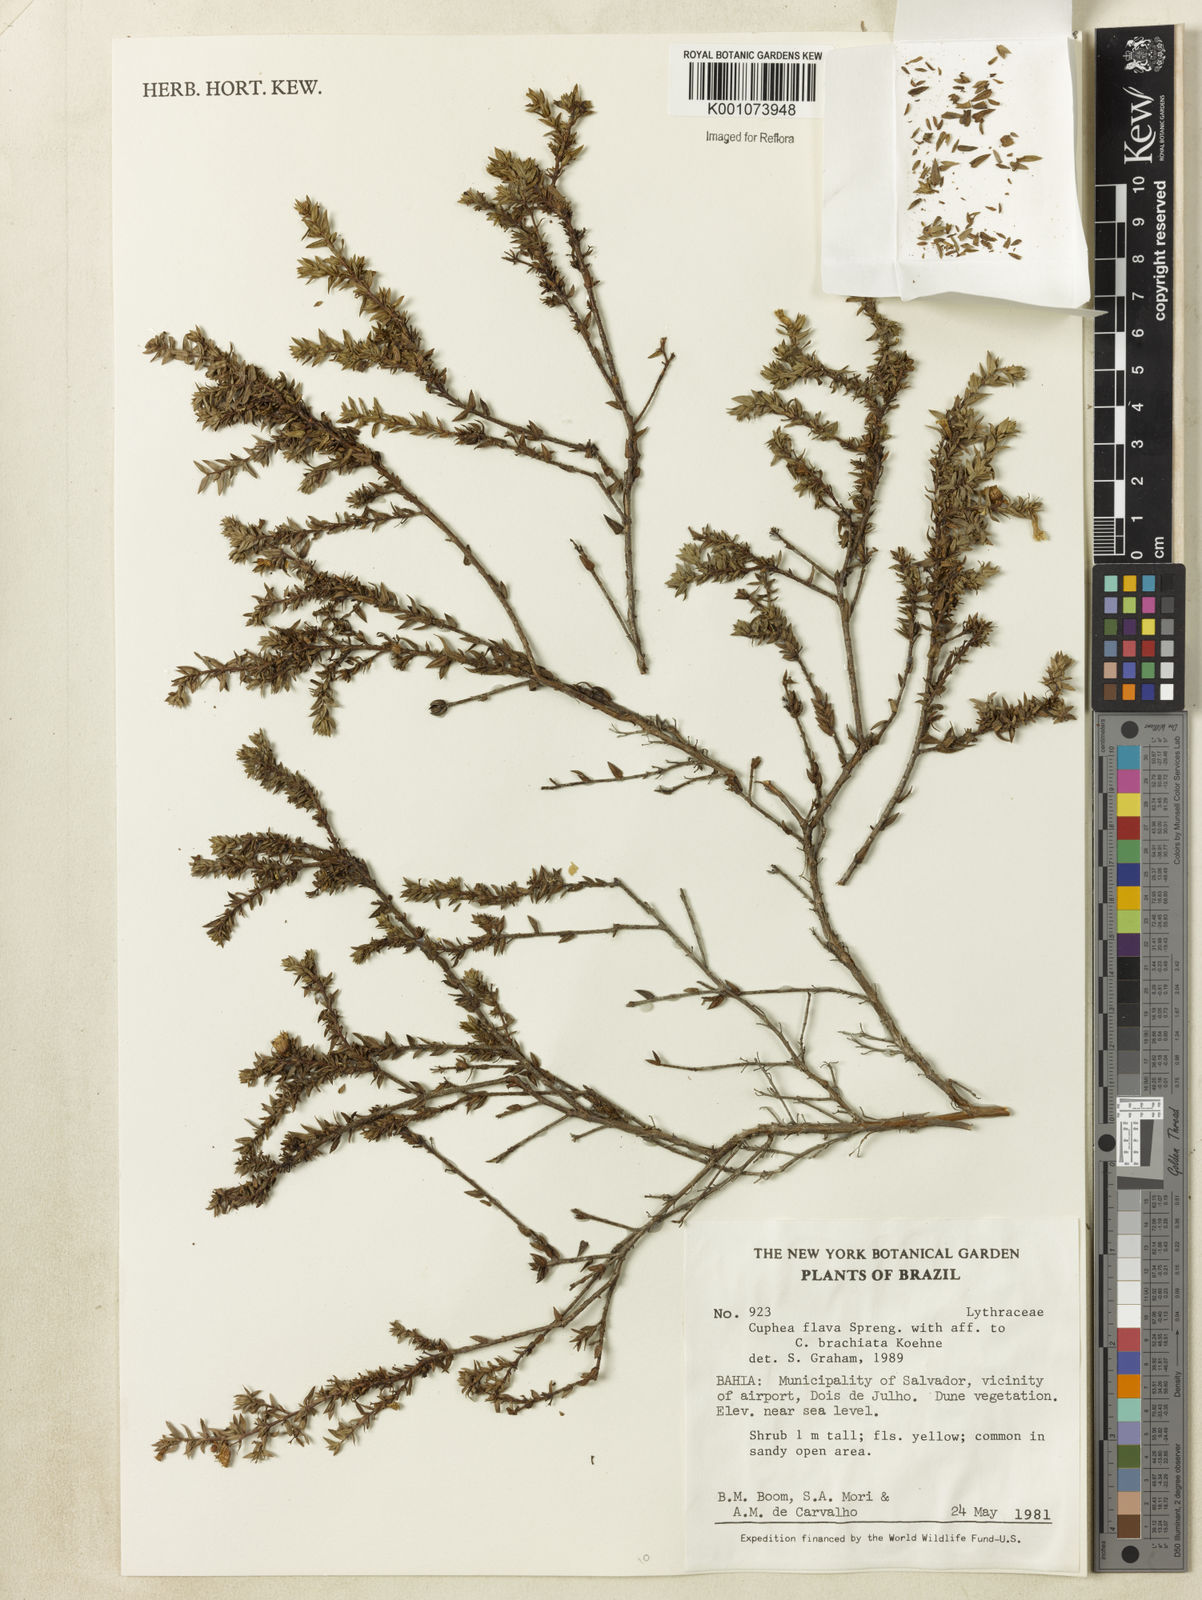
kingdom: Plantae
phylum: Tracheophyta
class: Magnoliopsida
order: Myrtales
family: Lythraceae
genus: Cuphea
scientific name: Cuphea flava
